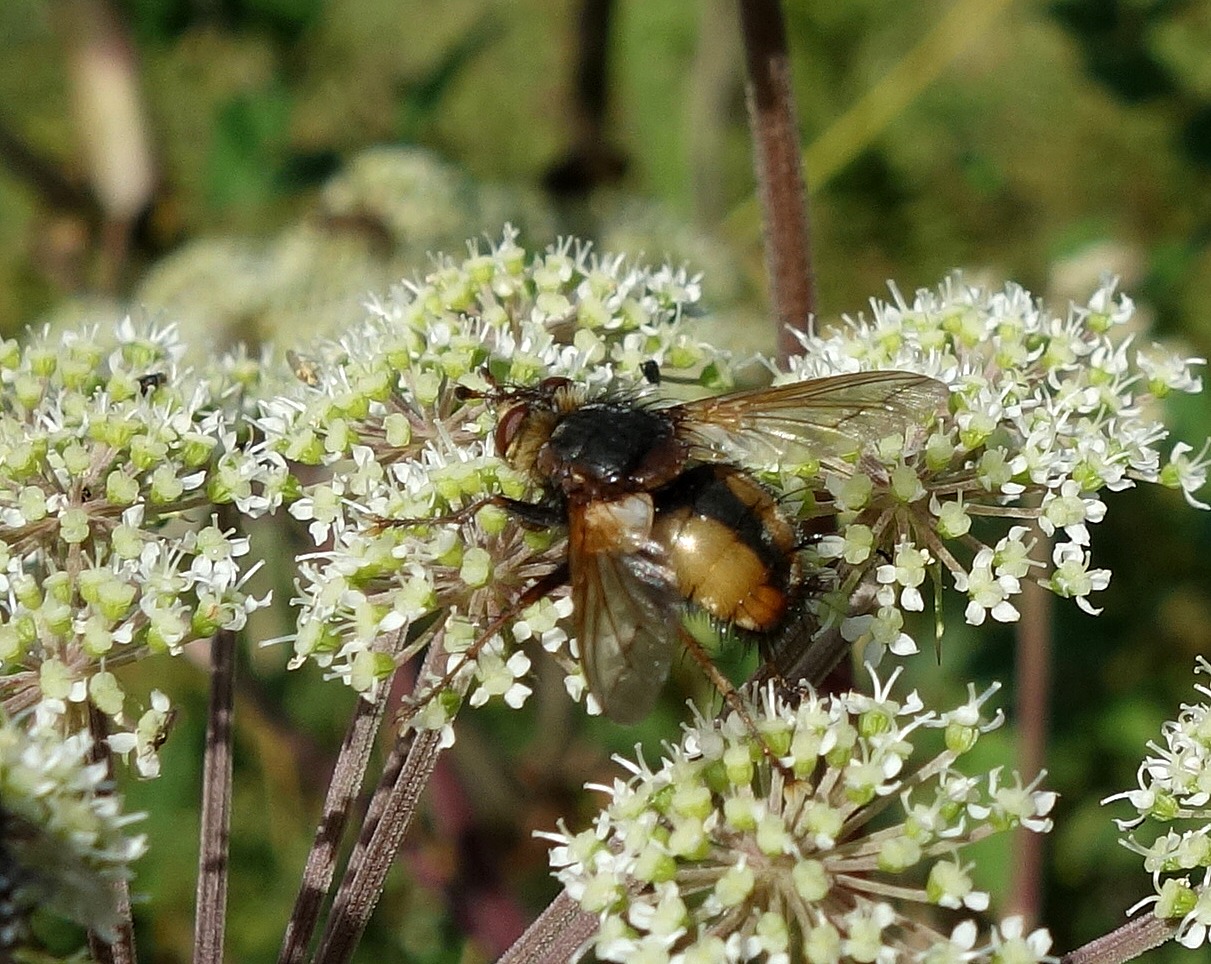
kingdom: Animalia
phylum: Arthropoda
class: Insecta
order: Diptera
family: Tachinidae
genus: Tachina
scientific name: Tachina fera
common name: Mellemfluen oskar
